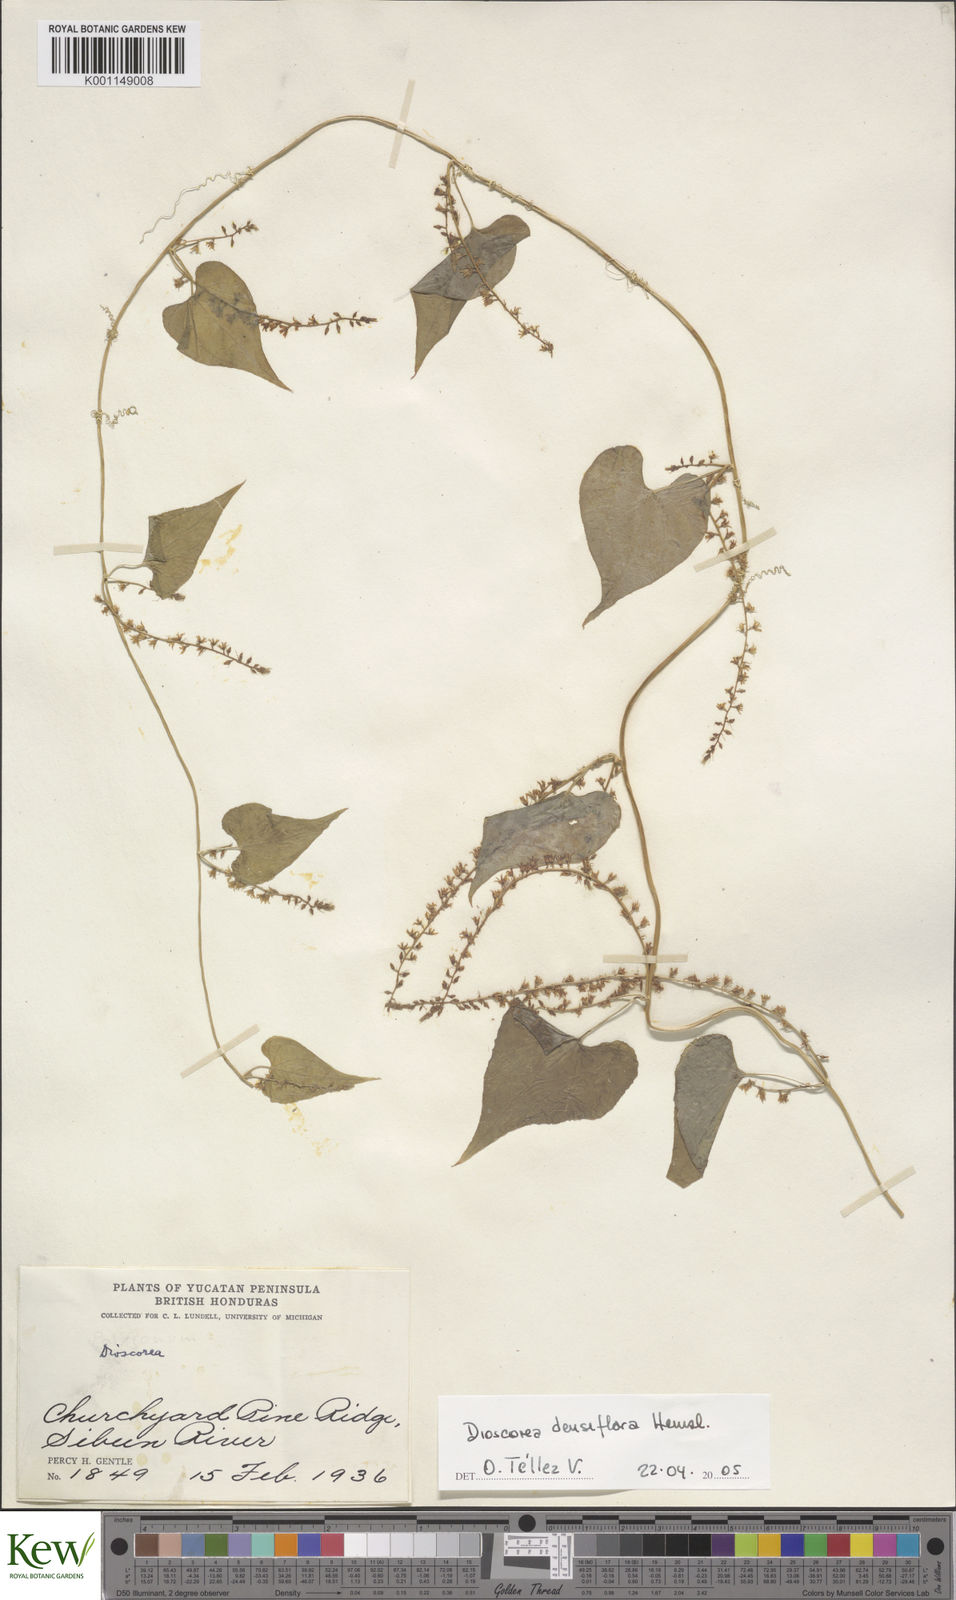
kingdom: Plantae
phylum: Tracheophyta
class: Liliopsida
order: Dioscoreales
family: Dioscoreaceae
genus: Dioscorea
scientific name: Dioscorea densiflora
